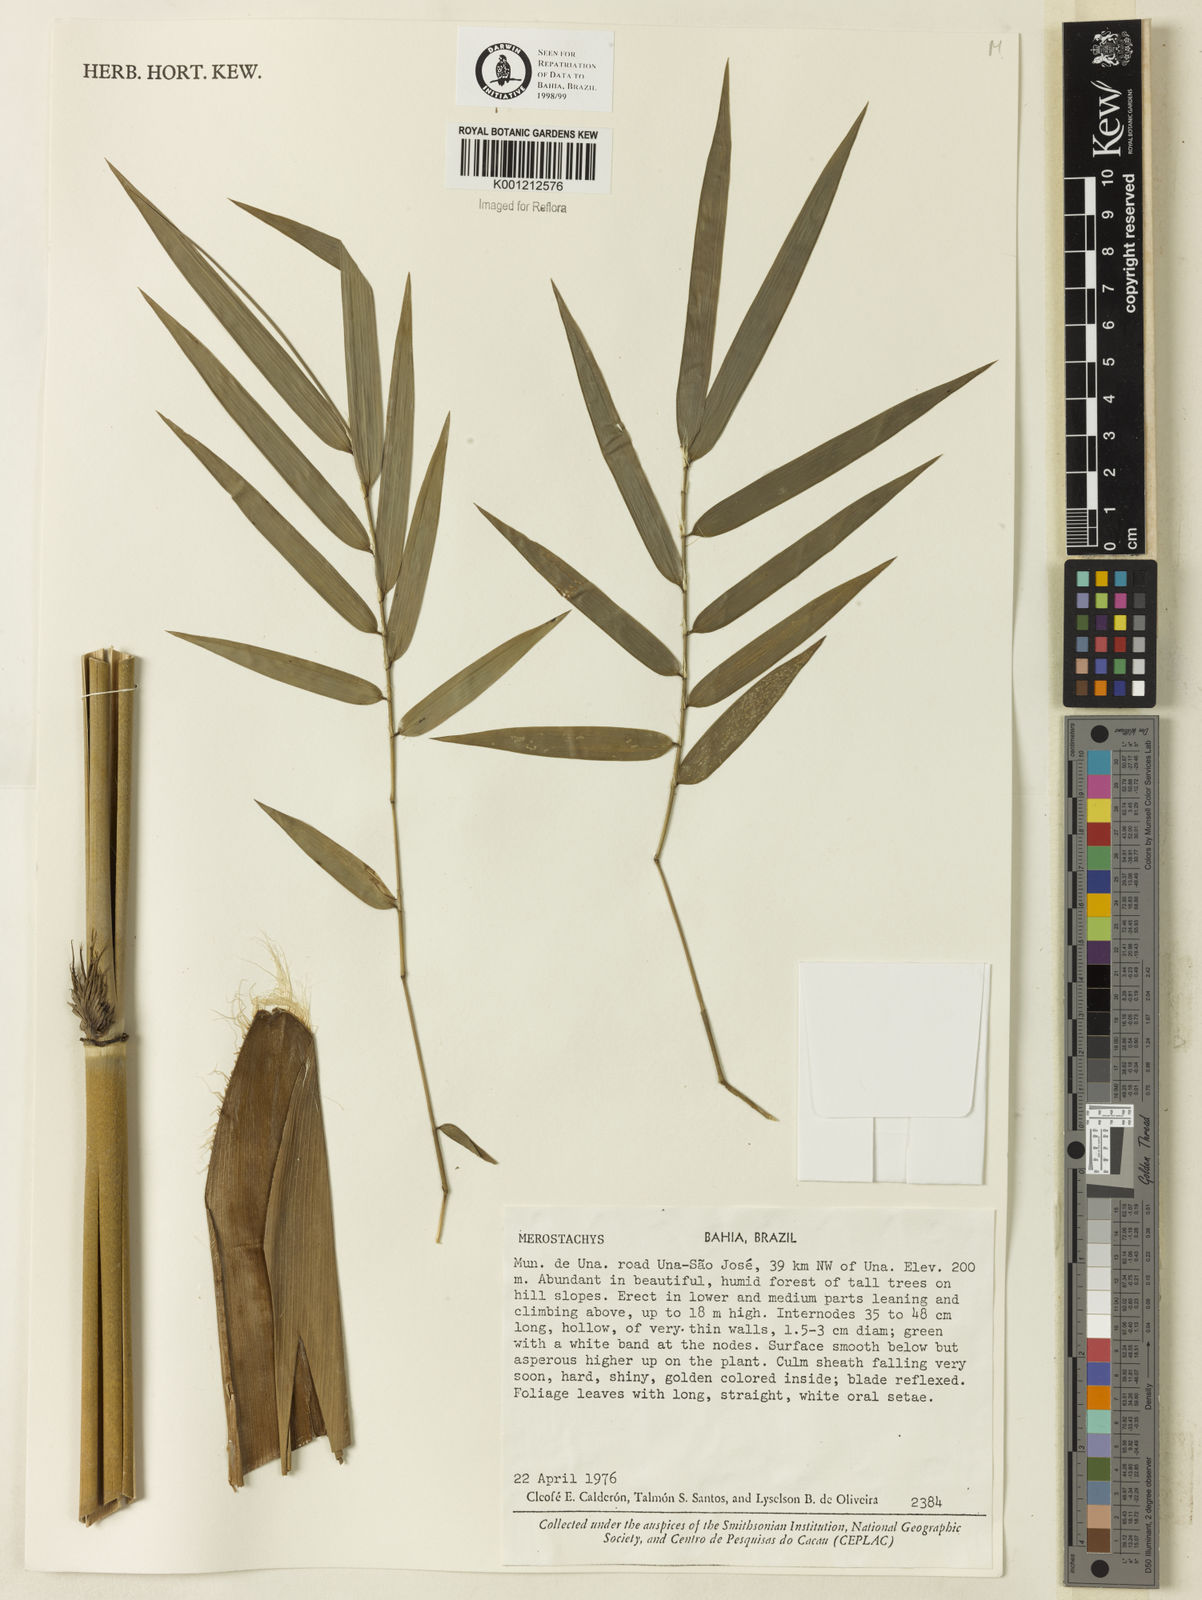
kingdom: Plantae
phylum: Tracheophyta
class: Liliopsida
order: Poales
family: Poaceae
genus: Merostachys
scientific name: Merostachys
